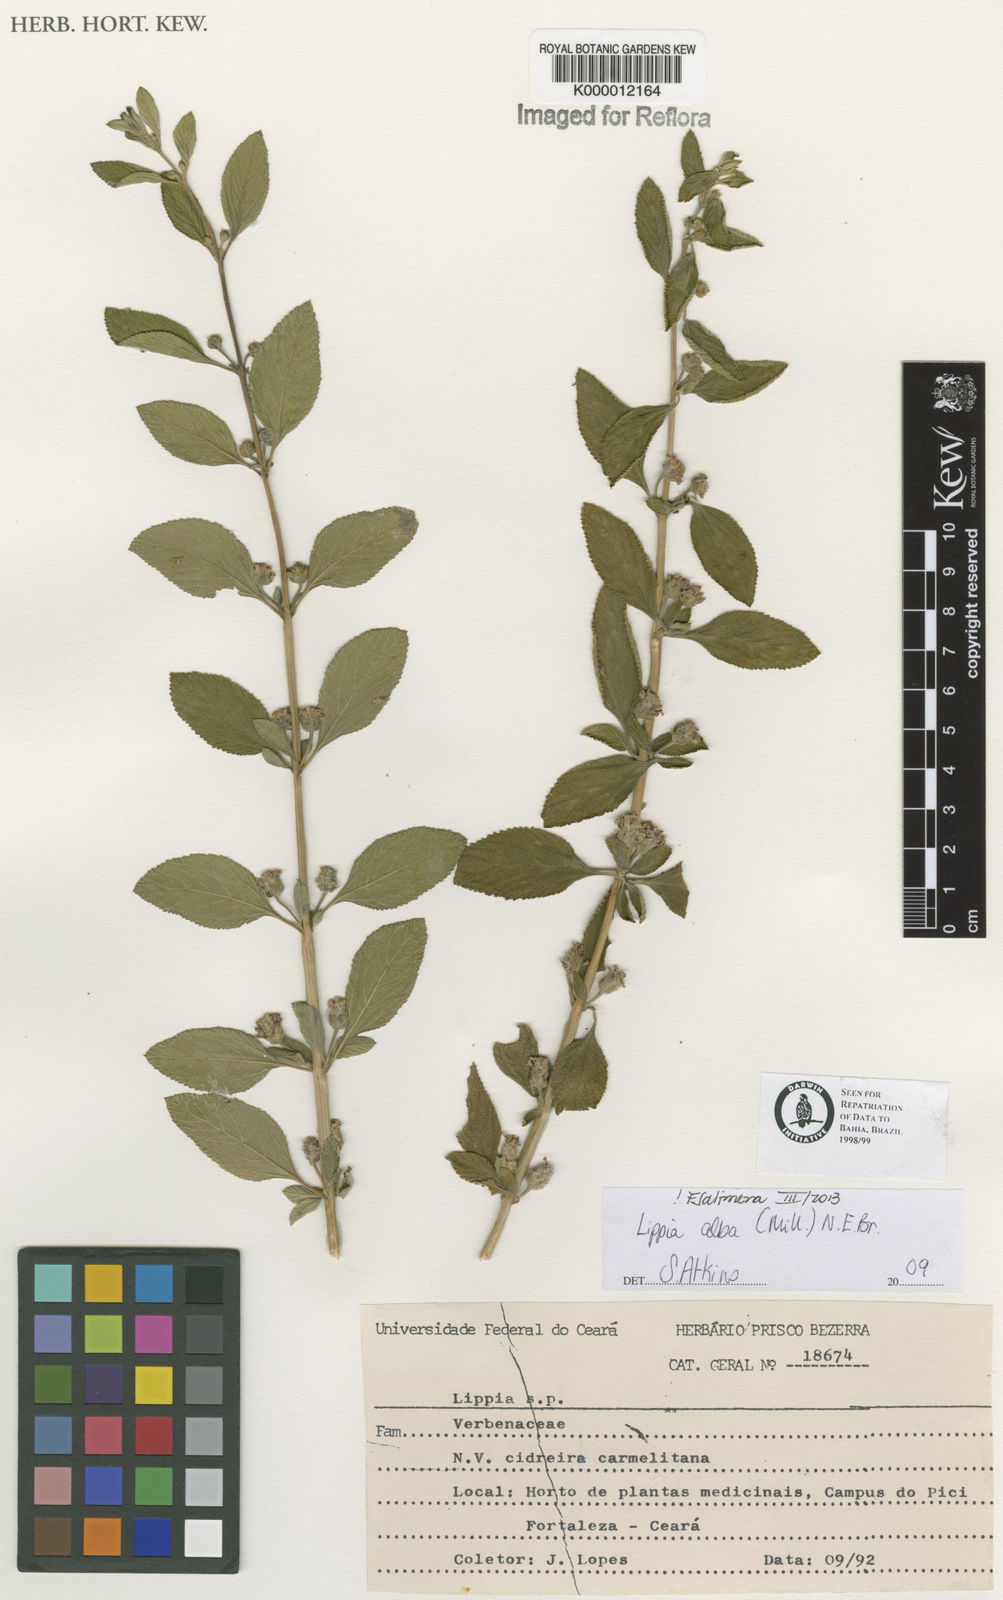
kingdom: Plantae
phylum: Tracheophyta
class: Magnoliopsida
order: Lamiales
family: Verbenaceae
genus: Lippia
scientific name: Lippia
